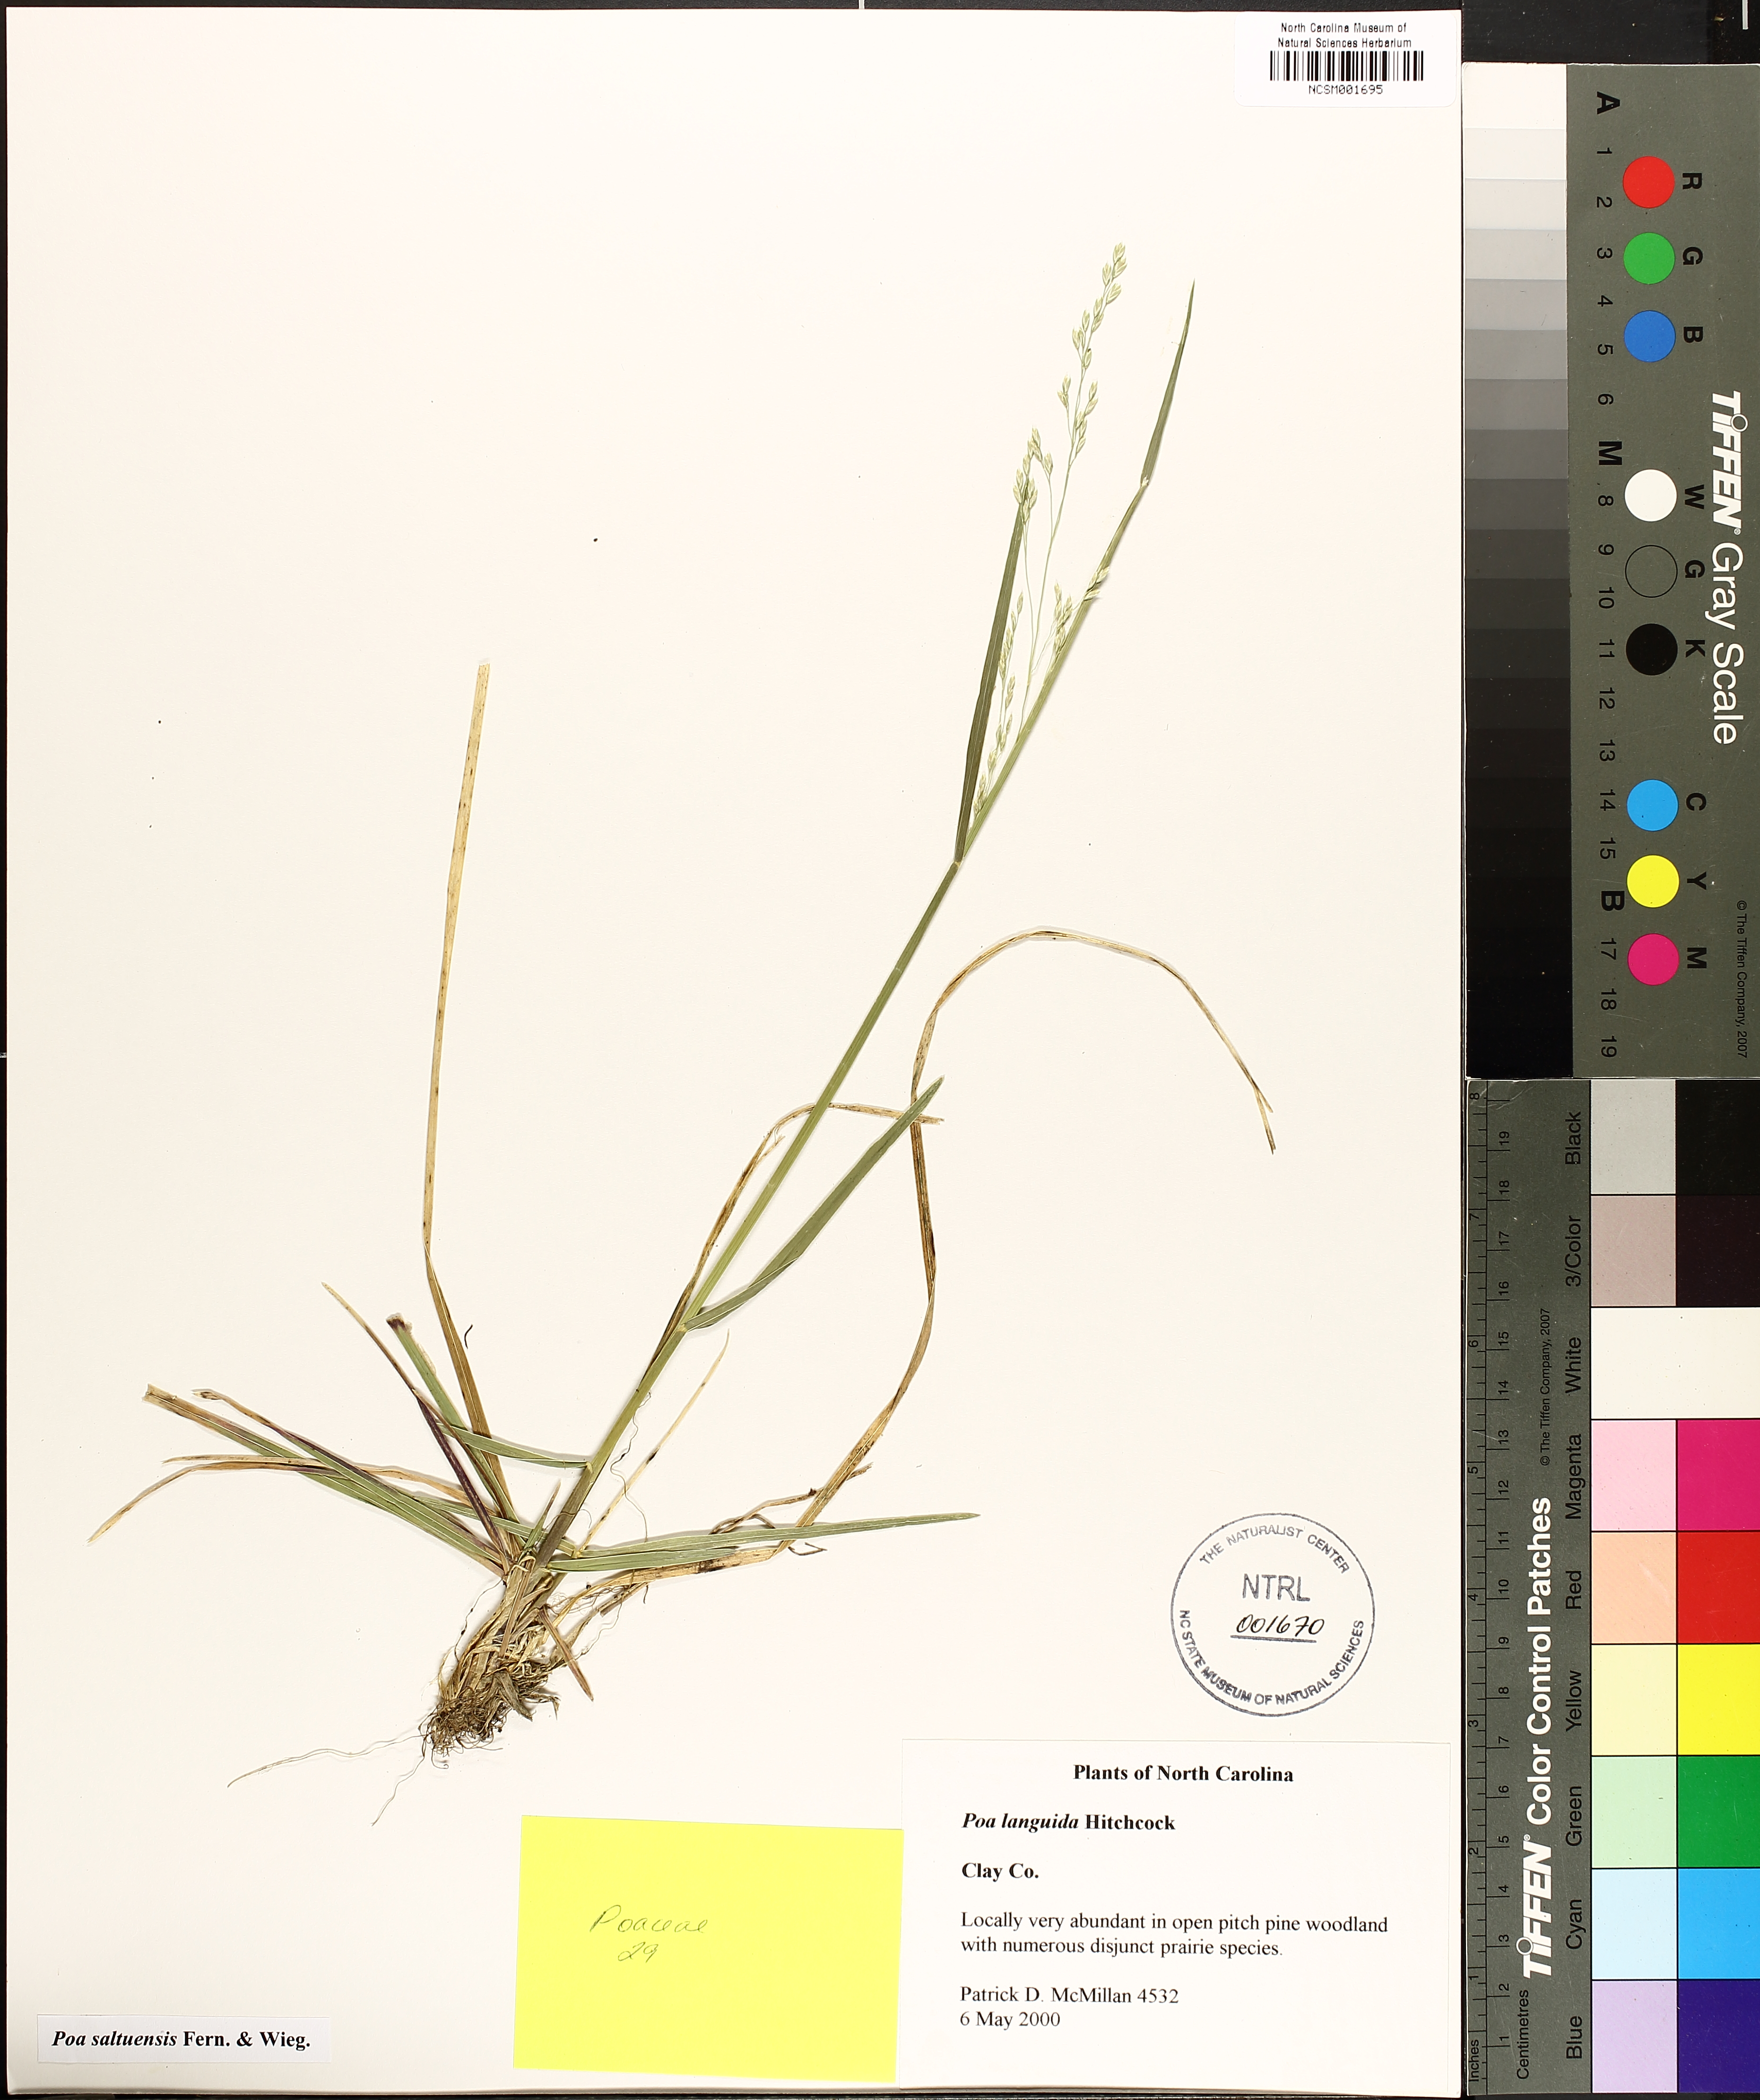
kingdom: Plantae
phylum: Tracheophyta
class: Liliopsida
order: Poales
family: Poaceae
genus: Poa
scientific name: Poa saltuensis
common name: Bushy pasture speargrass
